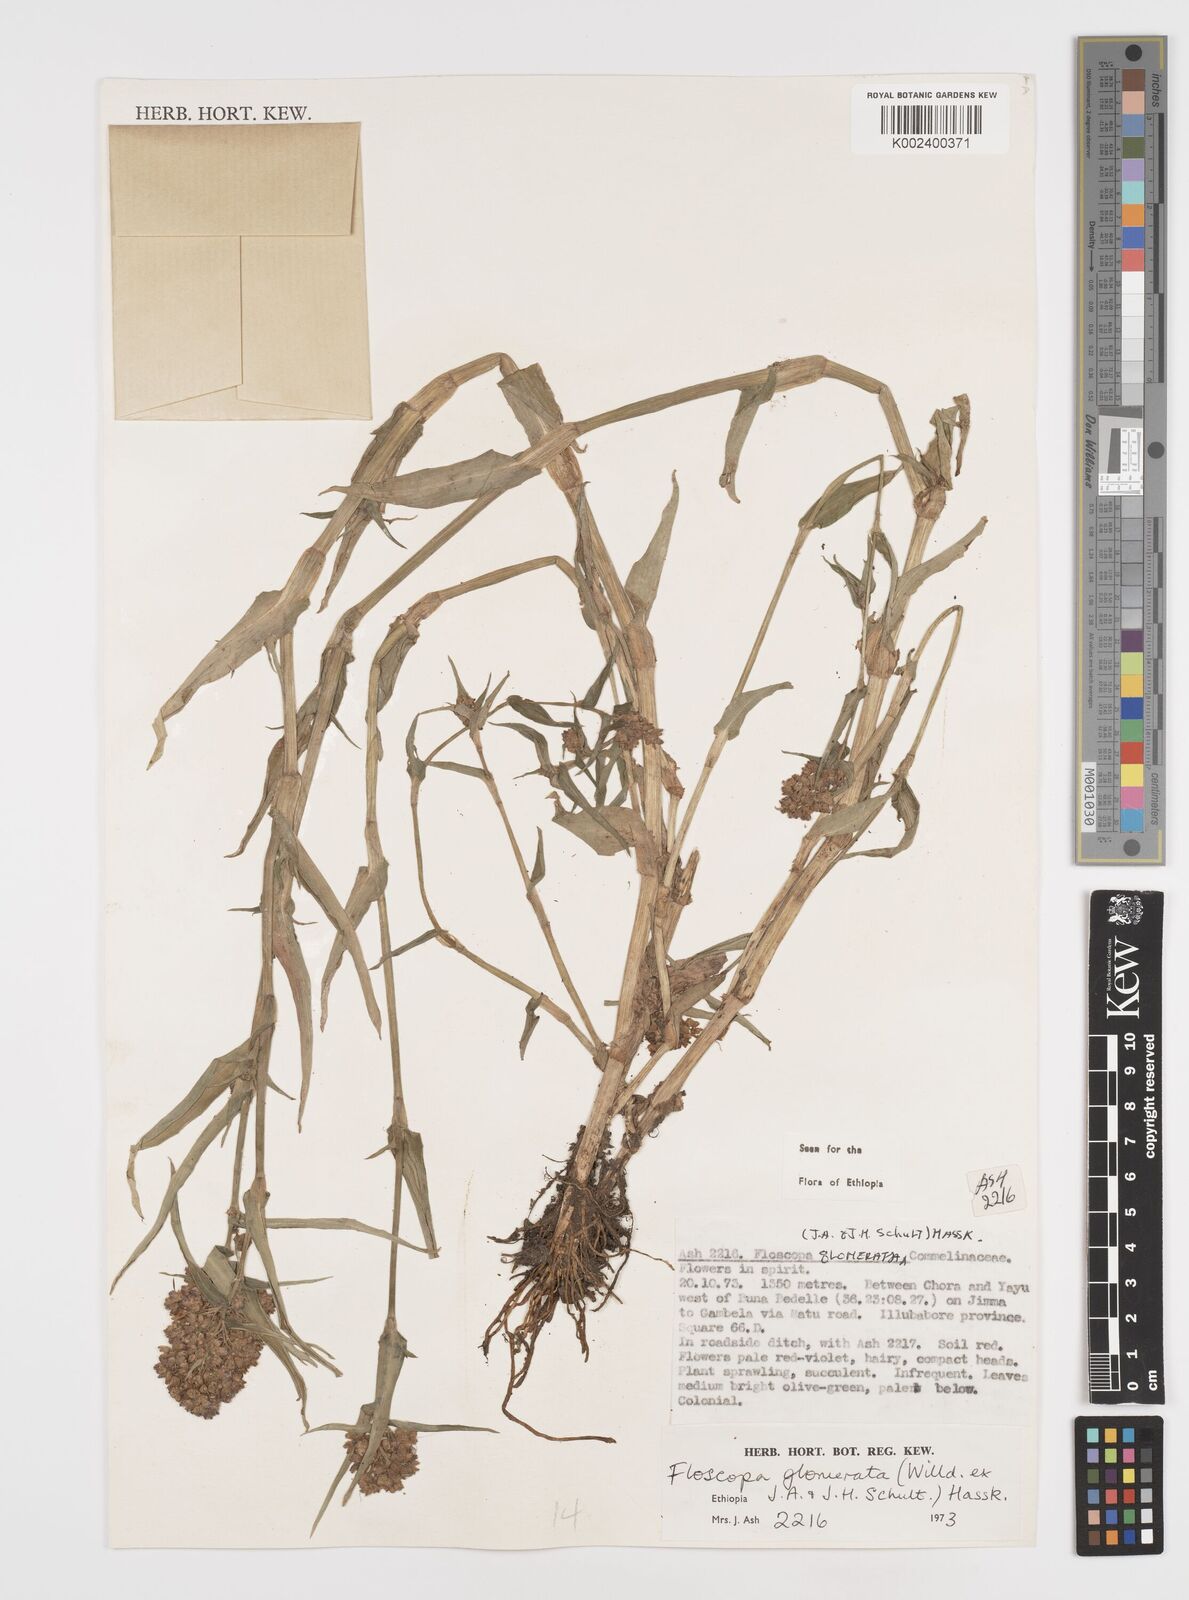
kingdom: Plantae
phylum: Tracheophyta
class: Liliopsida
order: Commelinales
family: Commelinaceae
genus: Floscopa
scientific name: Floscopa glomerata
